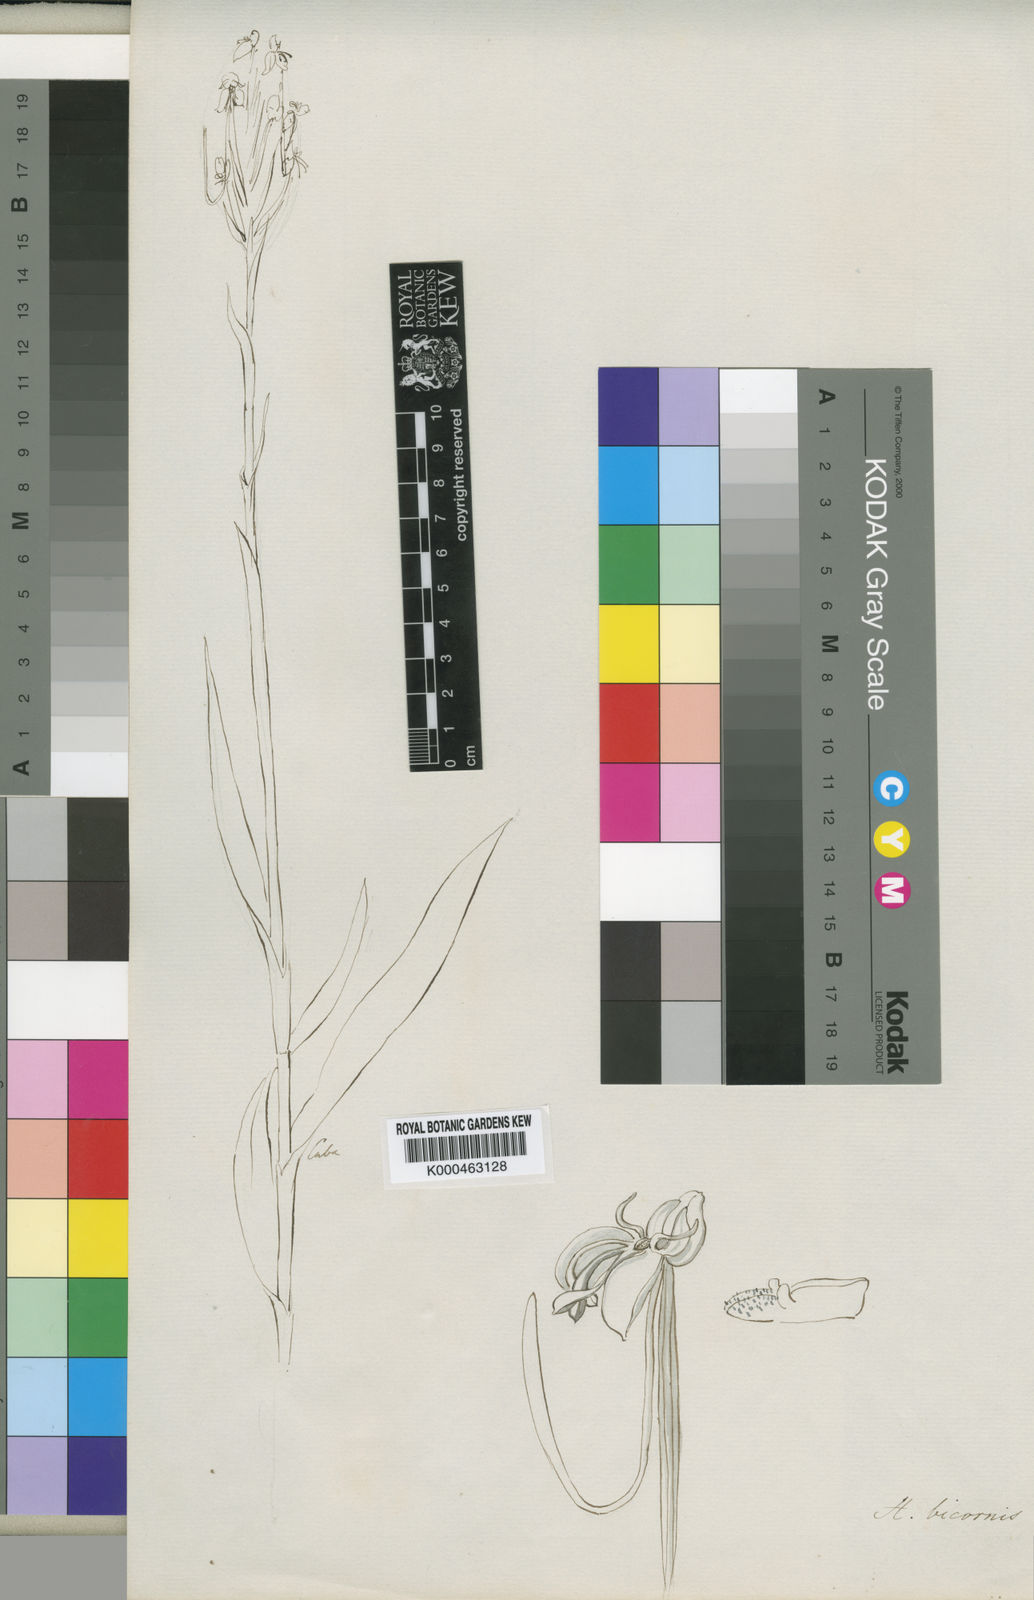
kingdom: Plantae
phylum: Tracheophyta
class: Liliopsida
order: Asparagales
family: Orchidaceae
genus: Habenaria
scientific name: Habenaria bicornis
